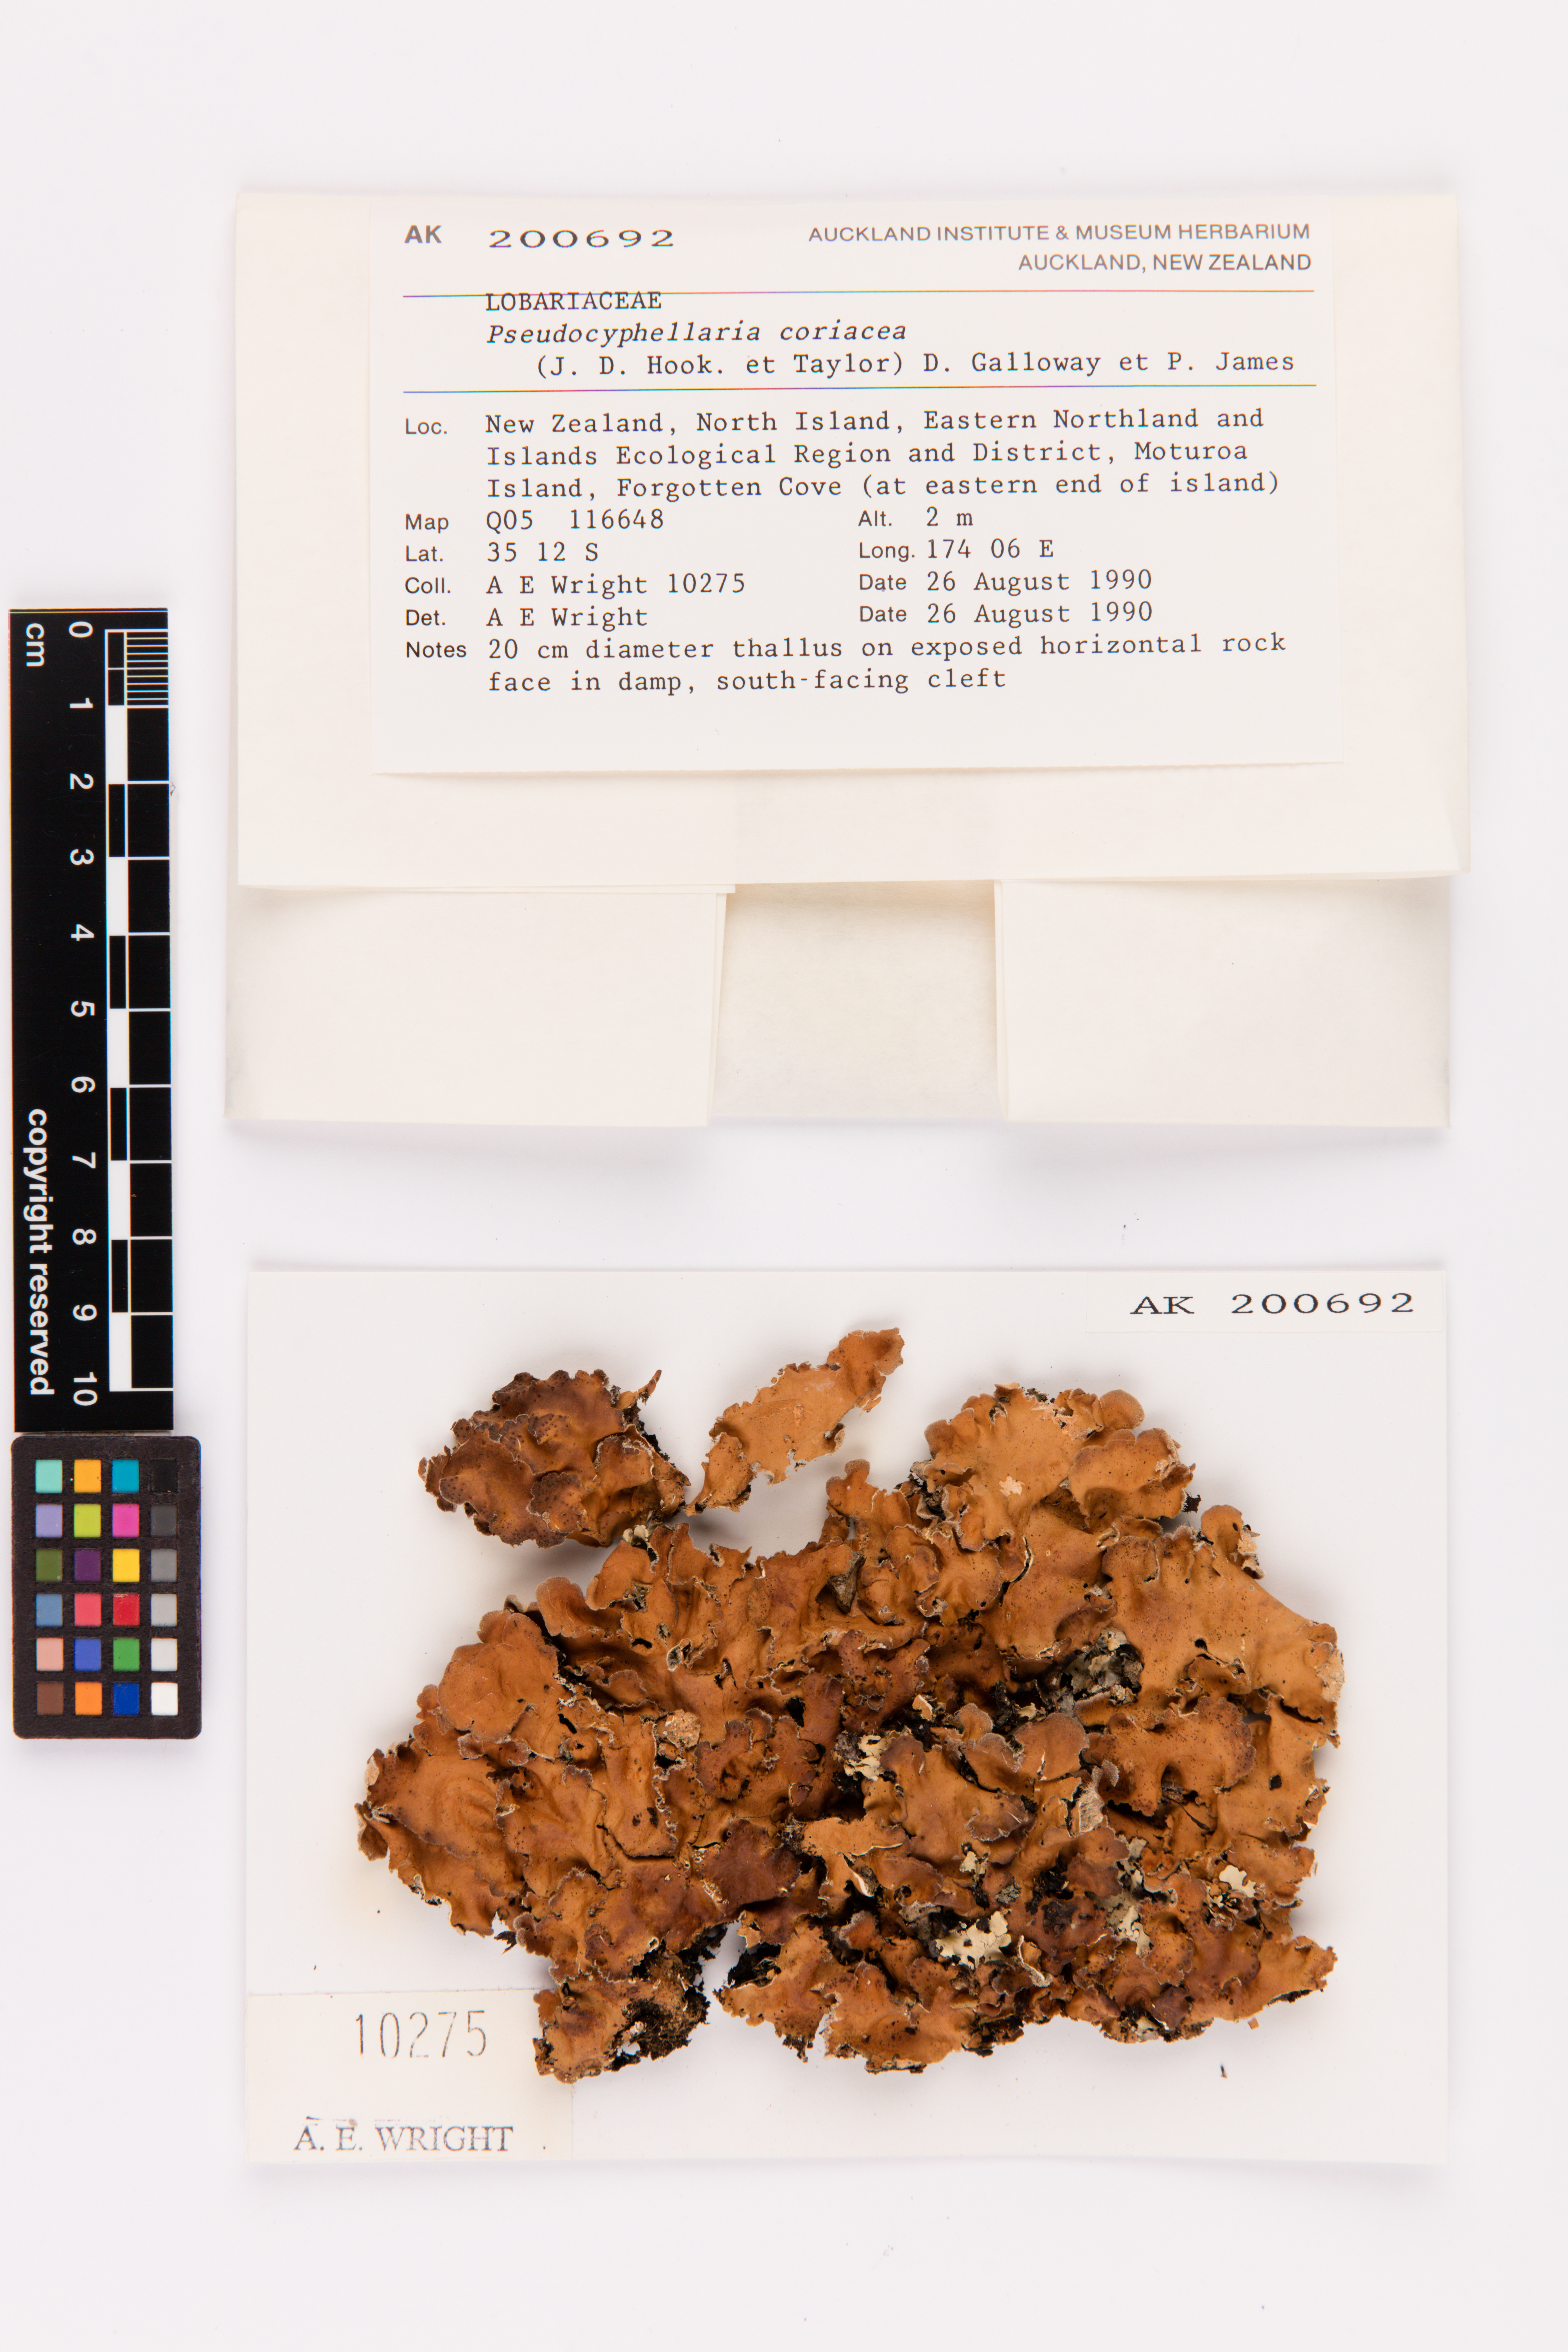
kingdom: Fungi
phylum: Ascomycota
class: Lecanoromycetes
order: Peltigerales
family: Lobariaceae
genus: Pseudocyphellaria
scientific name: Pseudocyphellaria coriacea
